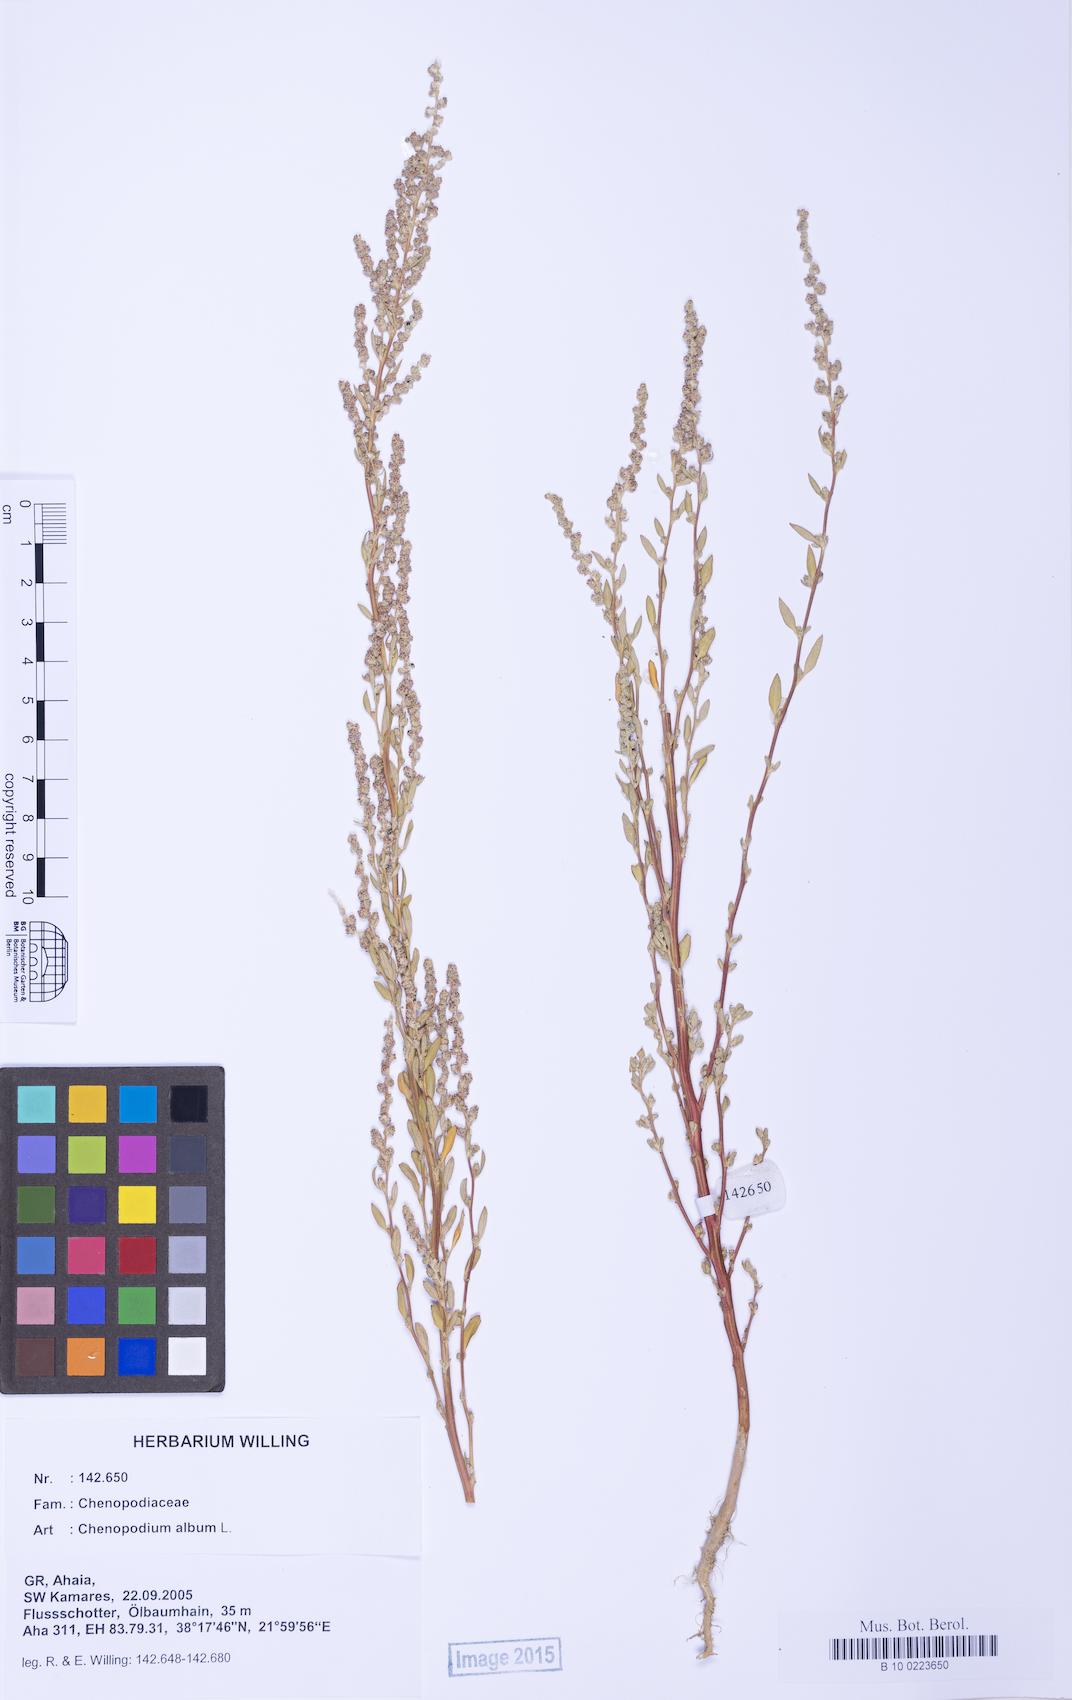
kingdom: Plantae
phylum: Tracheophyta
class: Magnoliopsida
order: Caryophyllales
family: Amaranthaceae
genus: Chenopodium
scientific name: Chenopodium betaceum
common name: Striped goosefoot
